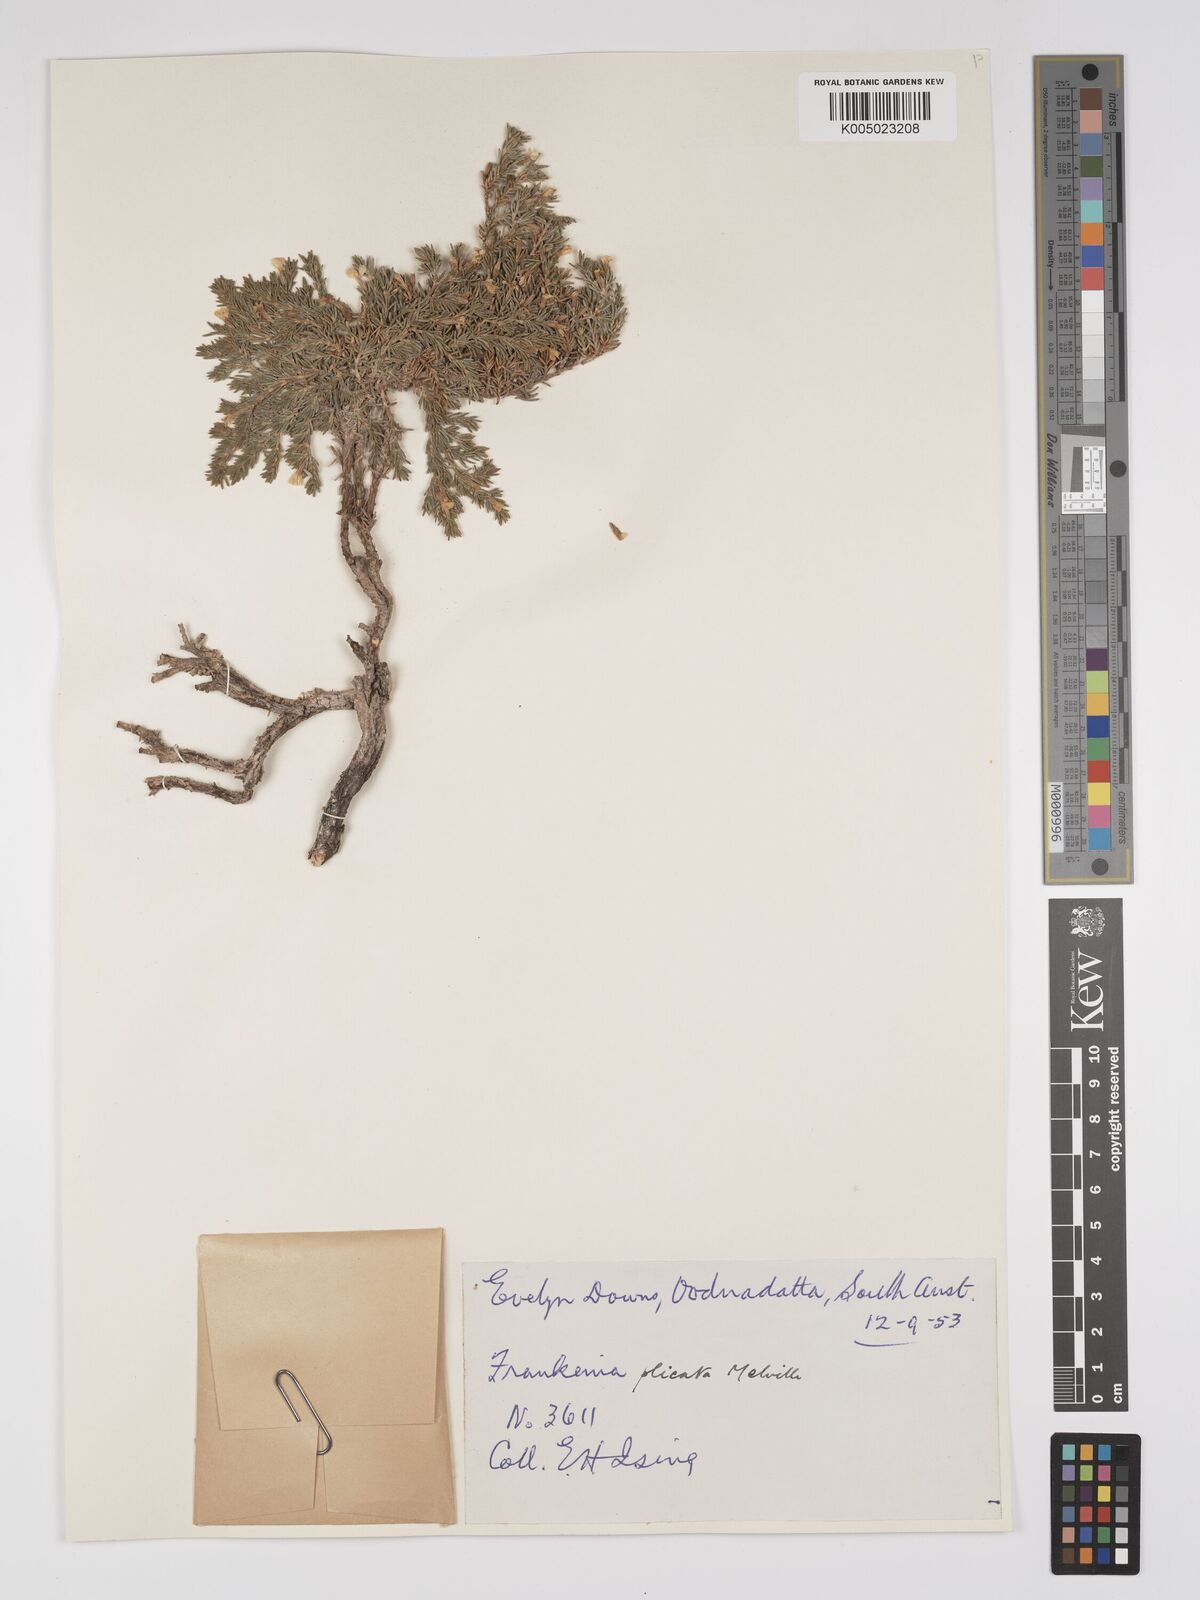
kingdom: Plantae
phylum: Tracheophyta
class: Magnoliopsida
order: Caryophyllales
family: Frankeniaceae
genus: Frankenia
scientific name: Frankenia plicata
